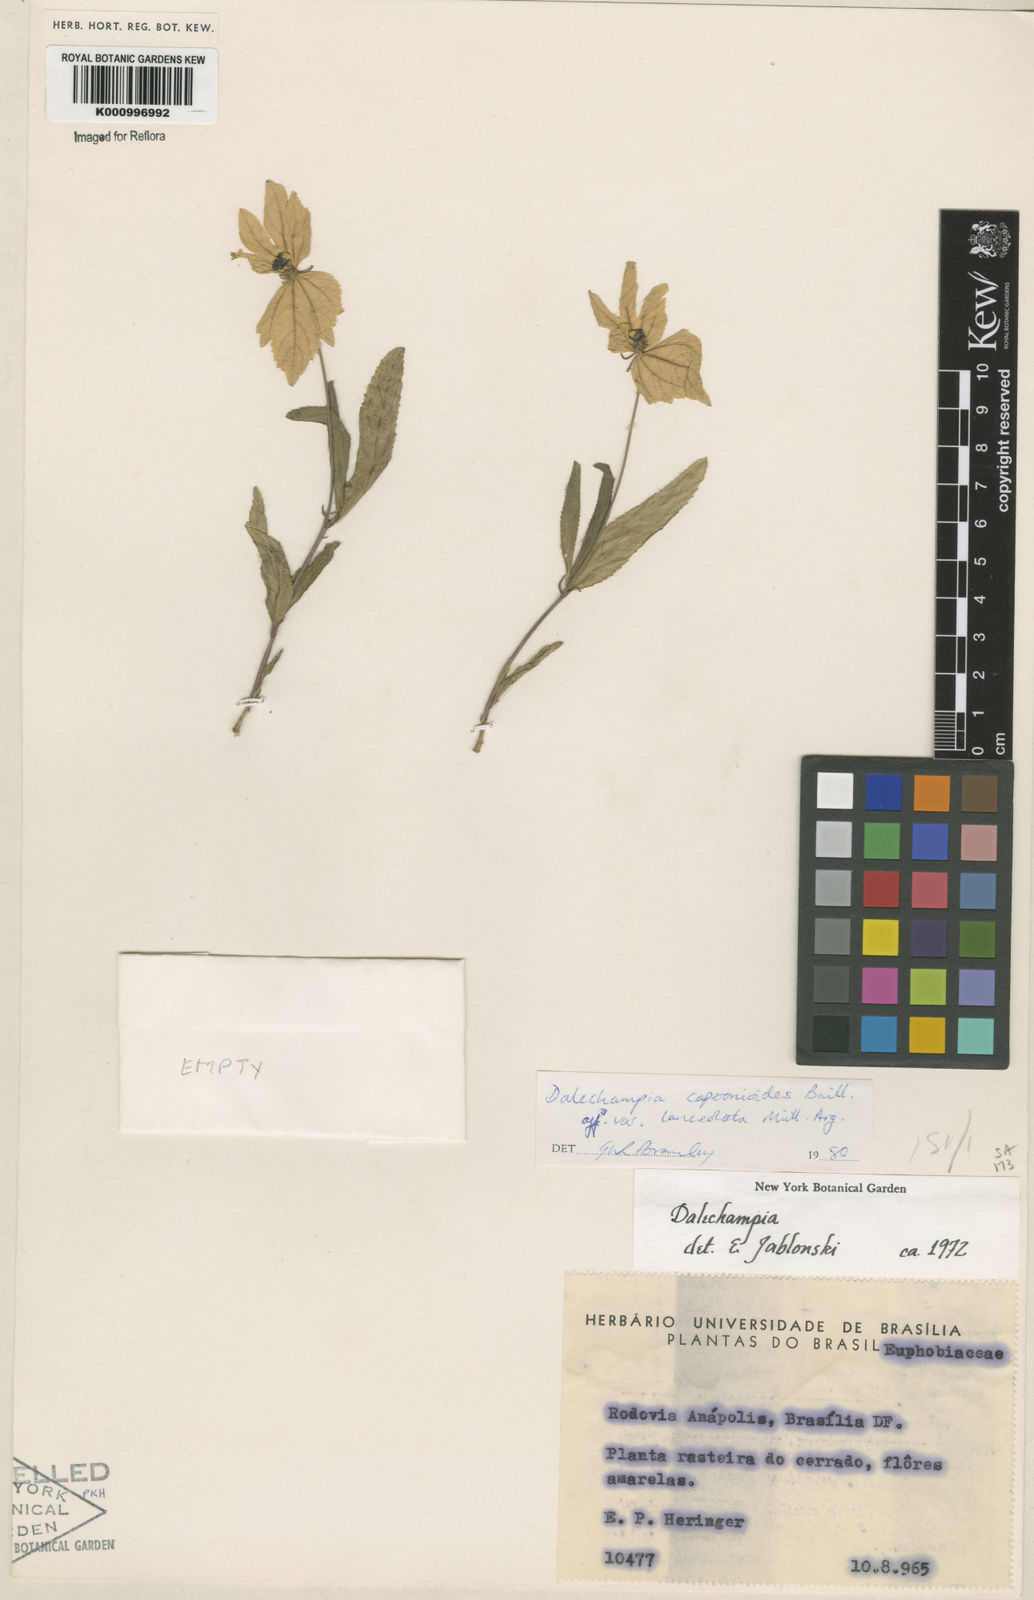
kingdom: Plantae
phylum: Tracheophyta
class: Magnoliopsida
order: Malpighiales
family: Euphorbiaceae
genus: Dalechampia
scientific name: Dalechampia caperonioides
